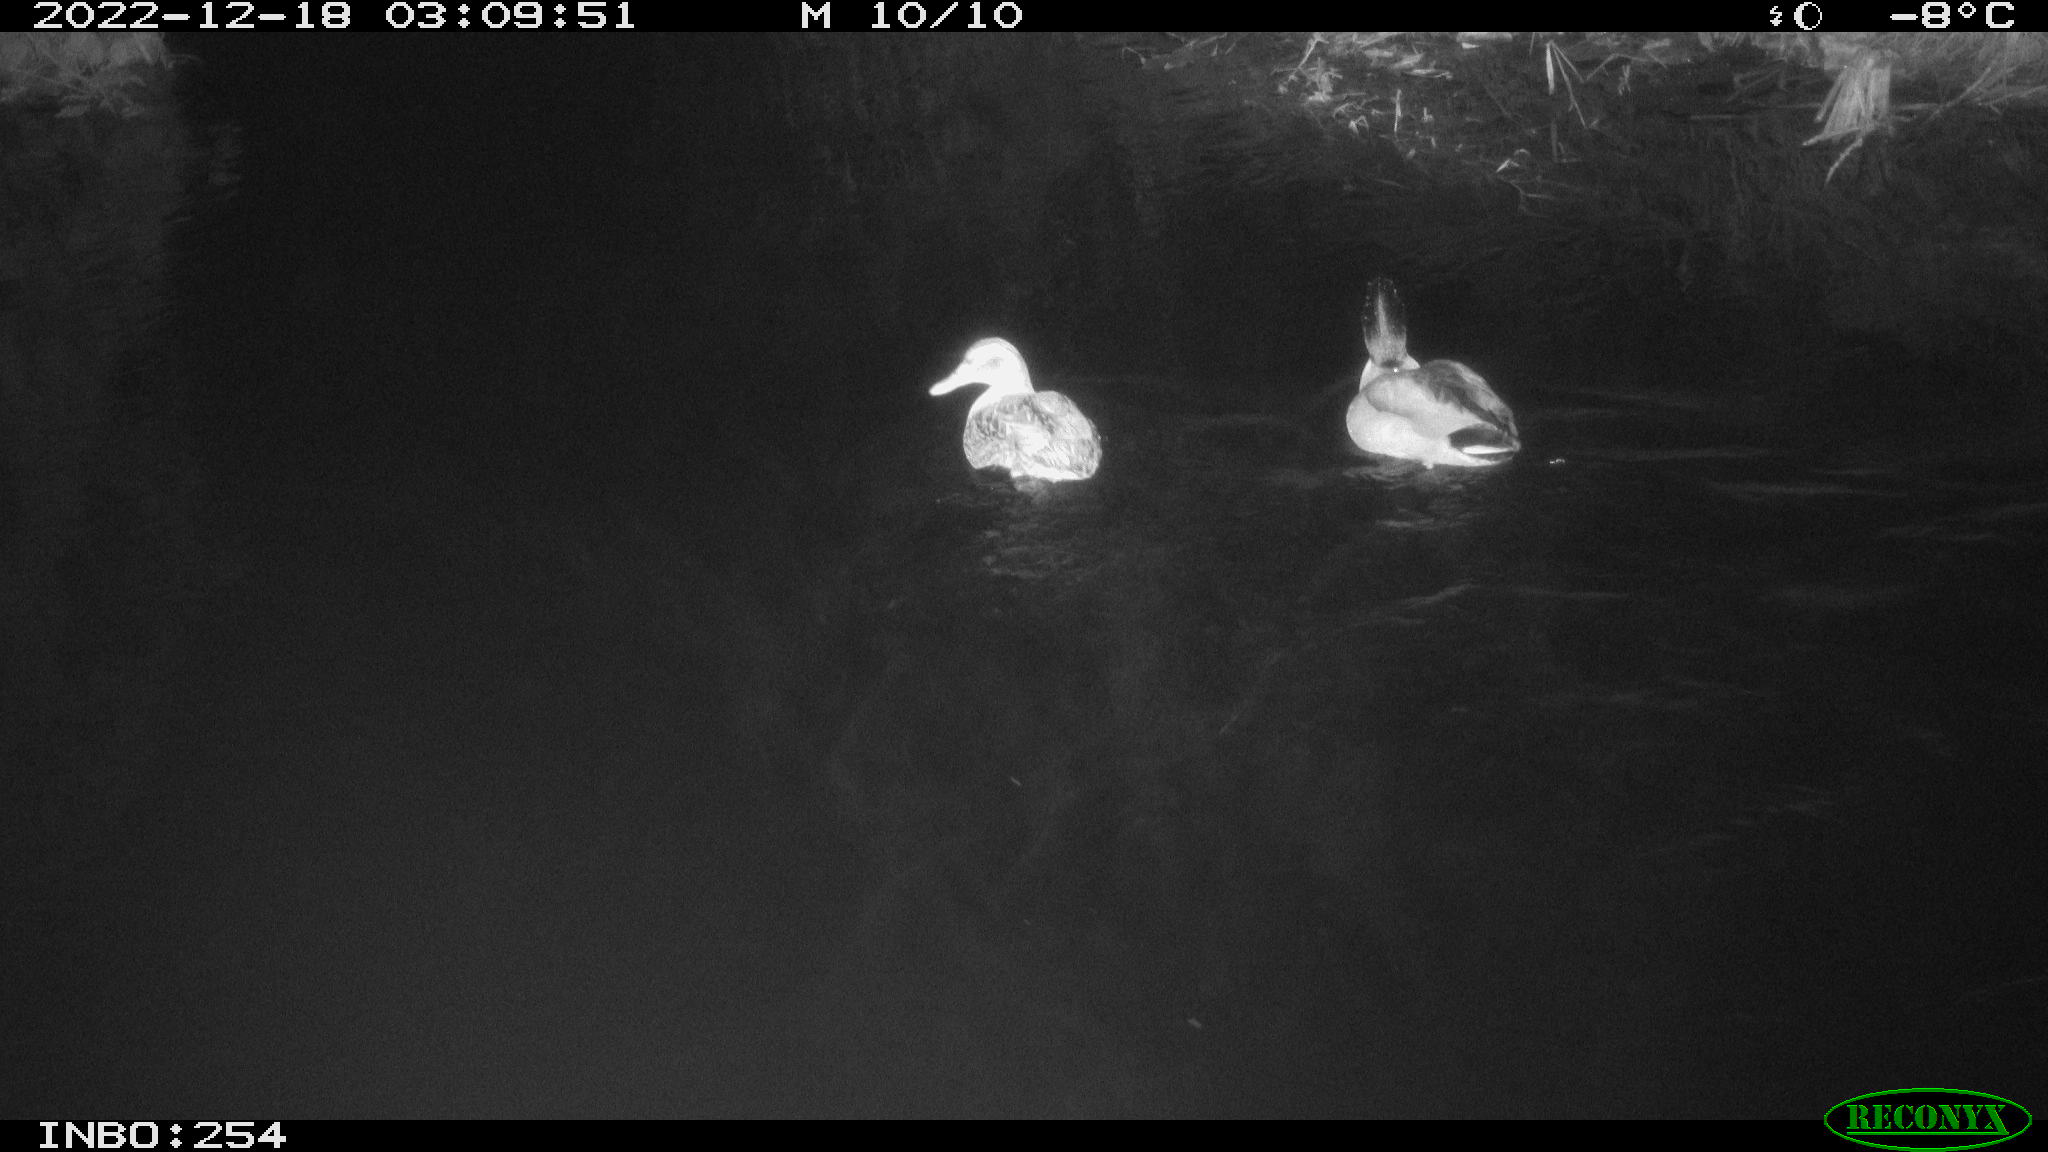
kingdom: Animalia
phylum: Chordata
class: Aves
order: Anseriformes
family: Anatidae
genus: Anas
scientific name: Anas
